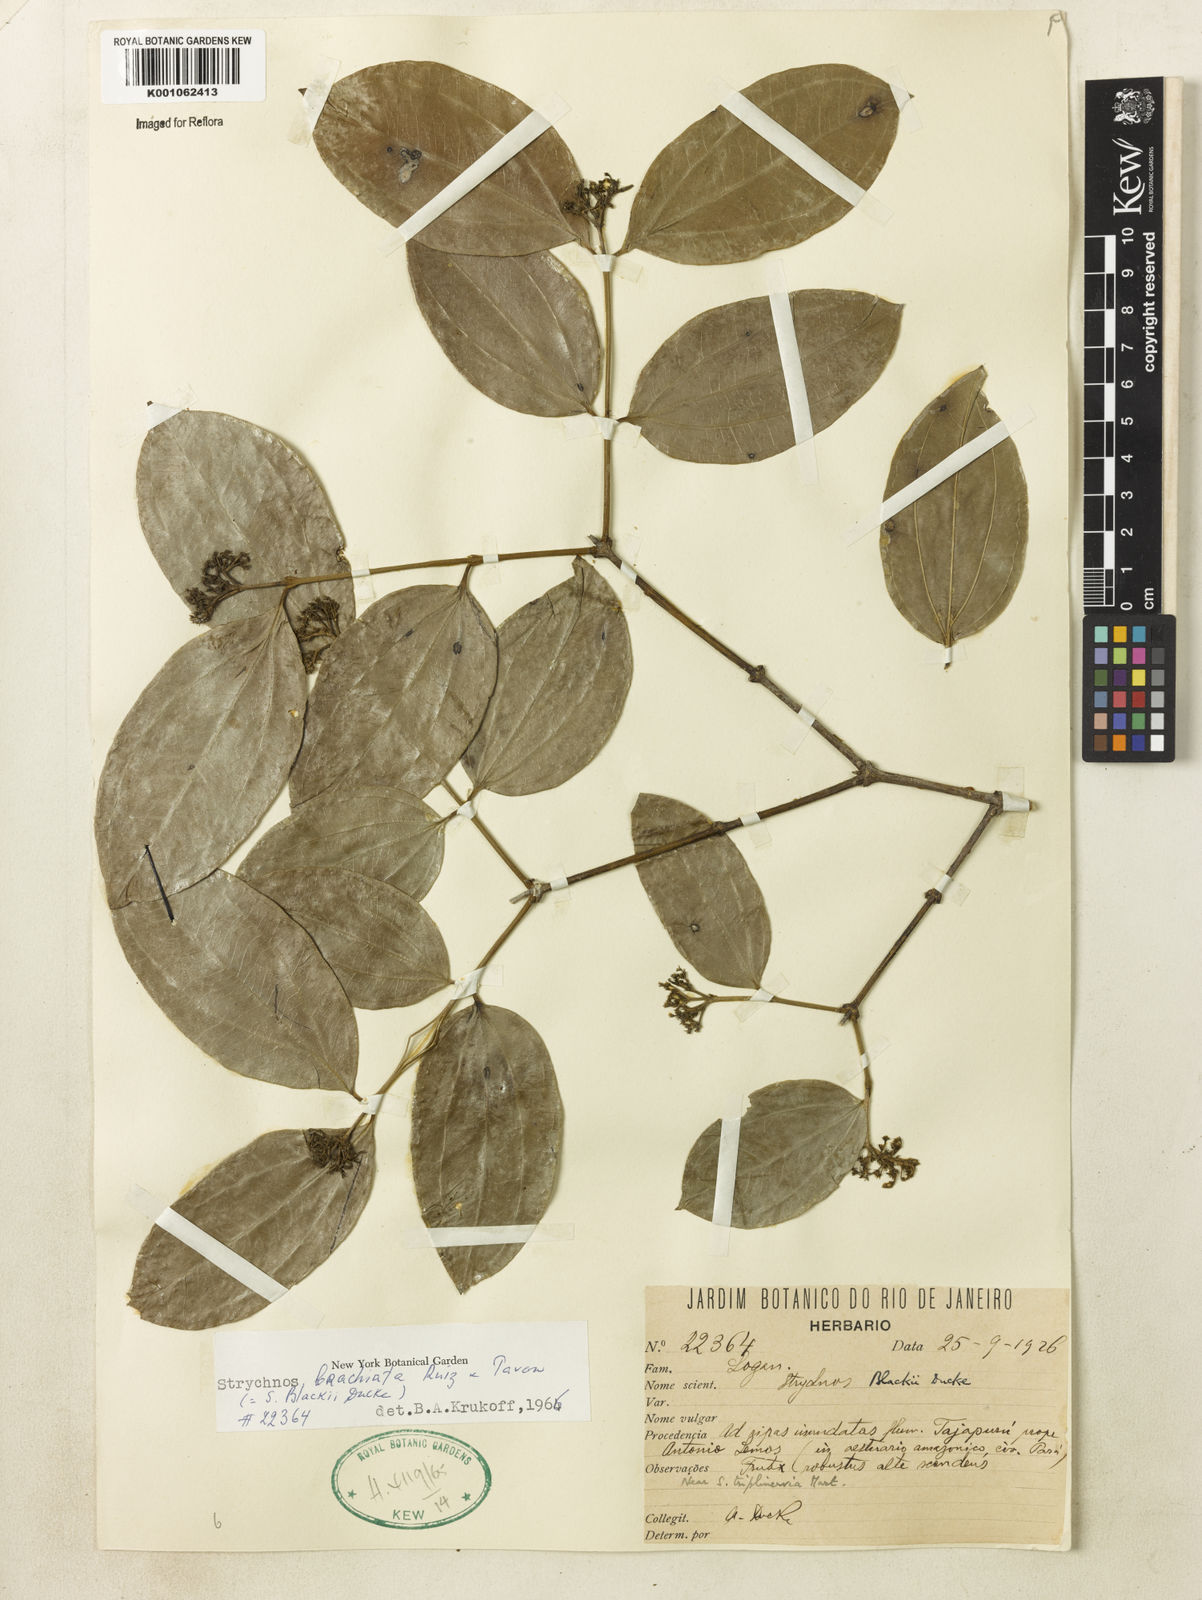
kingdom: Plantae
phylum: Tracheophyta
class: Magnoliopsida
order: Gentianales
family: Loganiaceae
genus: Strychnos
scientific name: Strychnos brachiata
